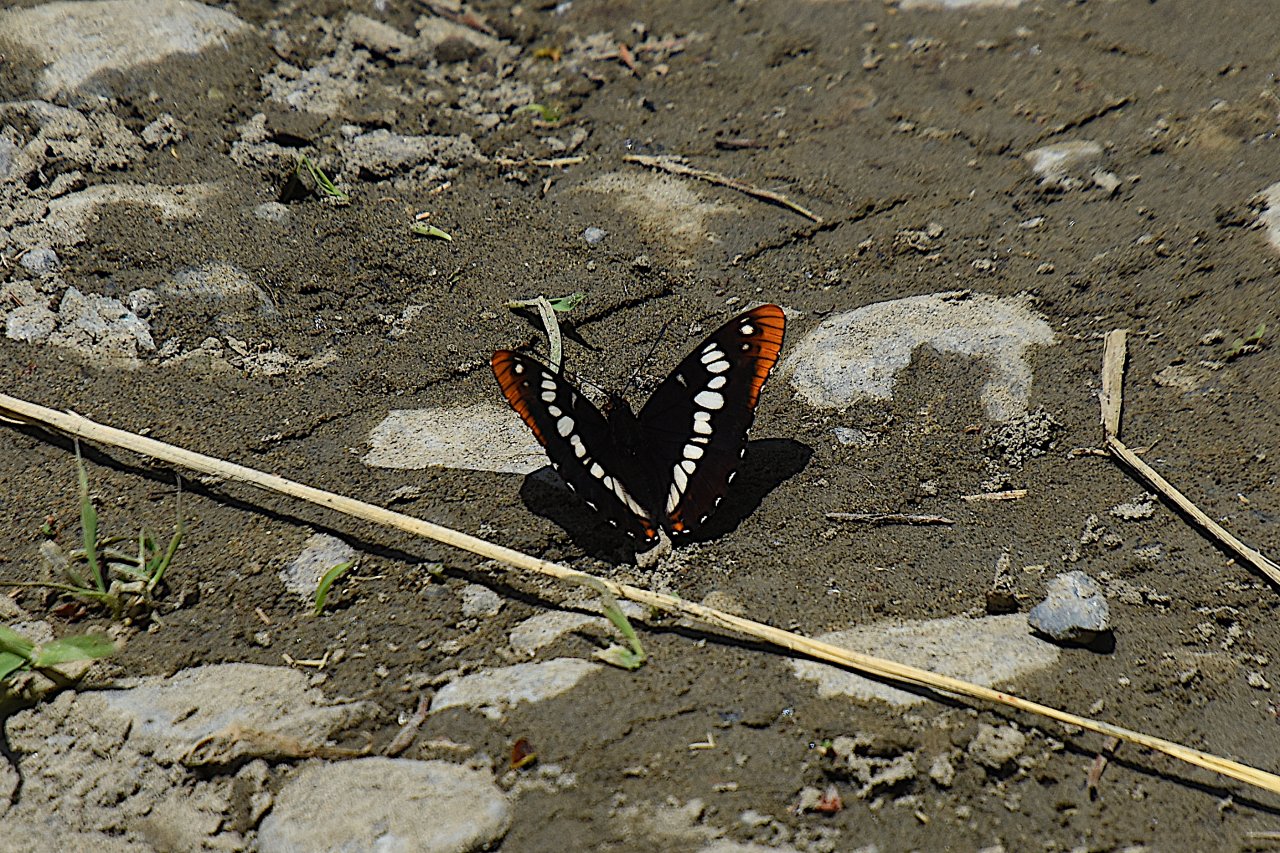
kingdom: Animalia
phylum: Arthropoda
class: Insecta
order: Lepidoptera
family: Nymphalidae
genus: Limenitis
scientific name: Limenitis lorquini
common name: Lorquin's Admiral
